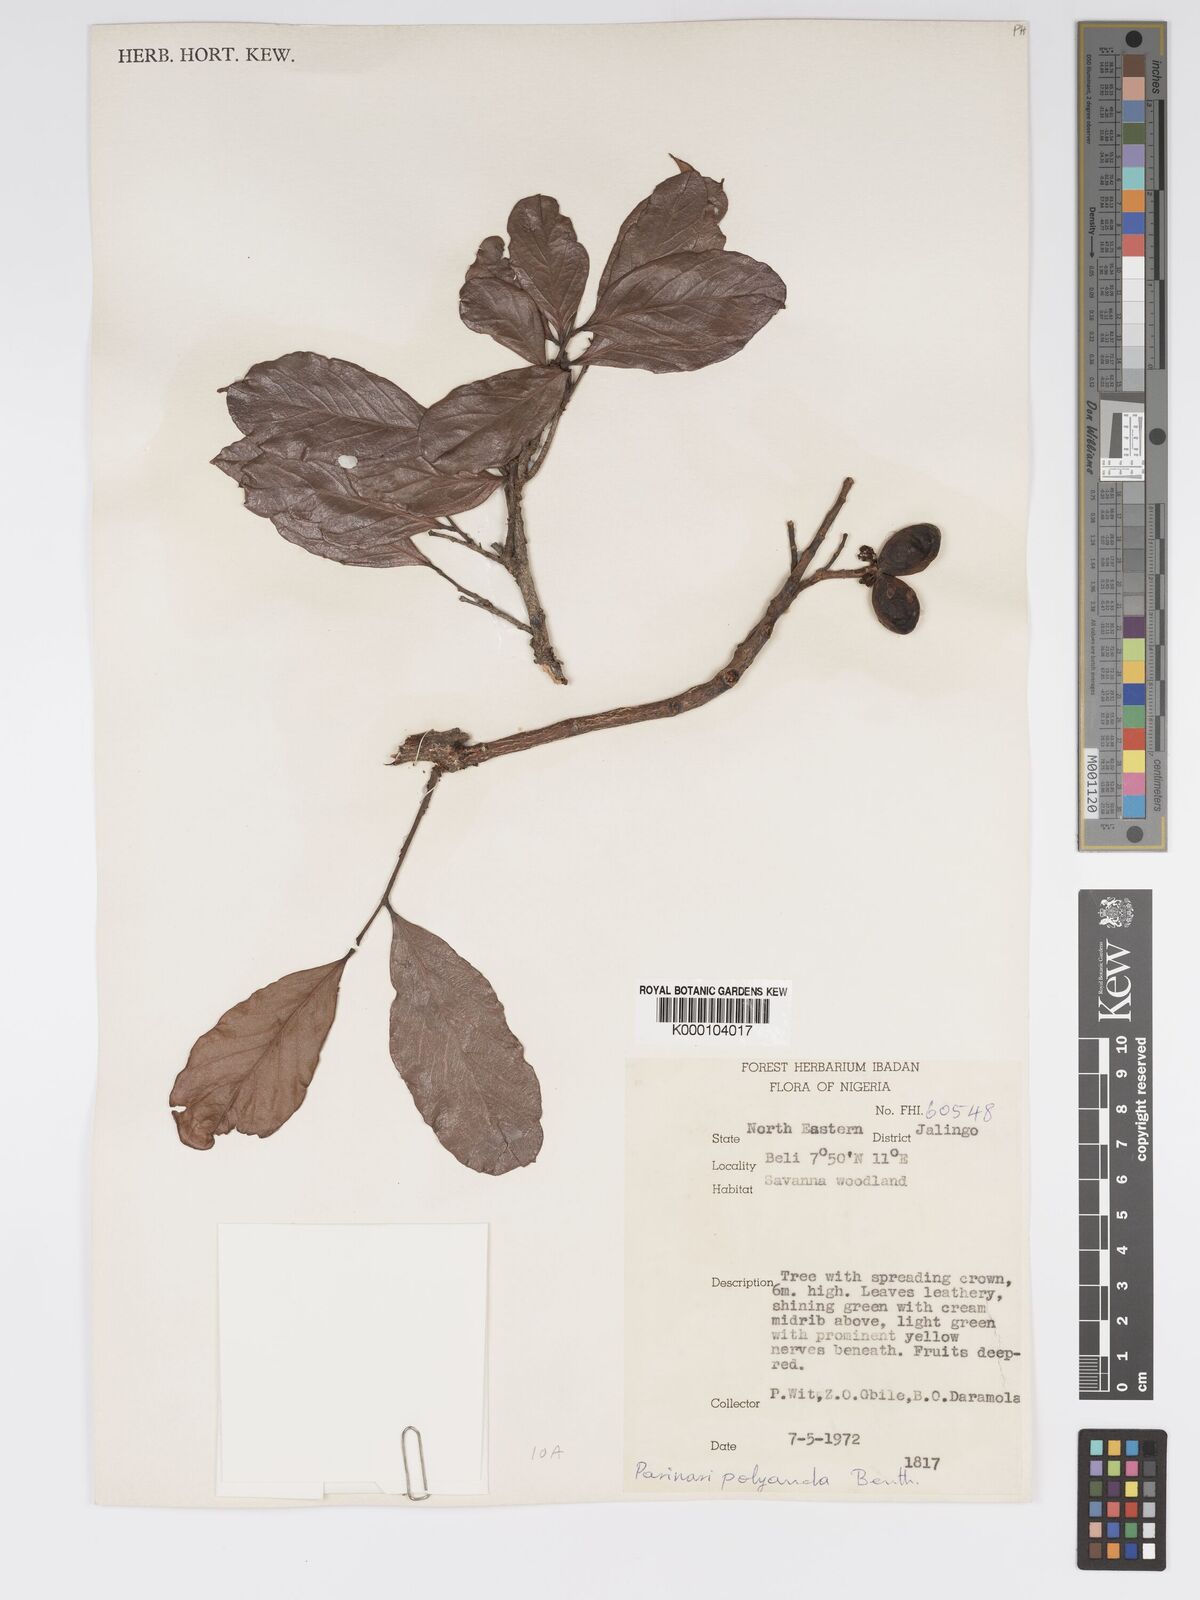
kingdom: Plantae
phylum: Tracheophyta
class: Magnoliopsida
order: Malpighiales
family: Chrysobalanaceae
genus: Maranthes
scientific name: Maranthes polyandra
